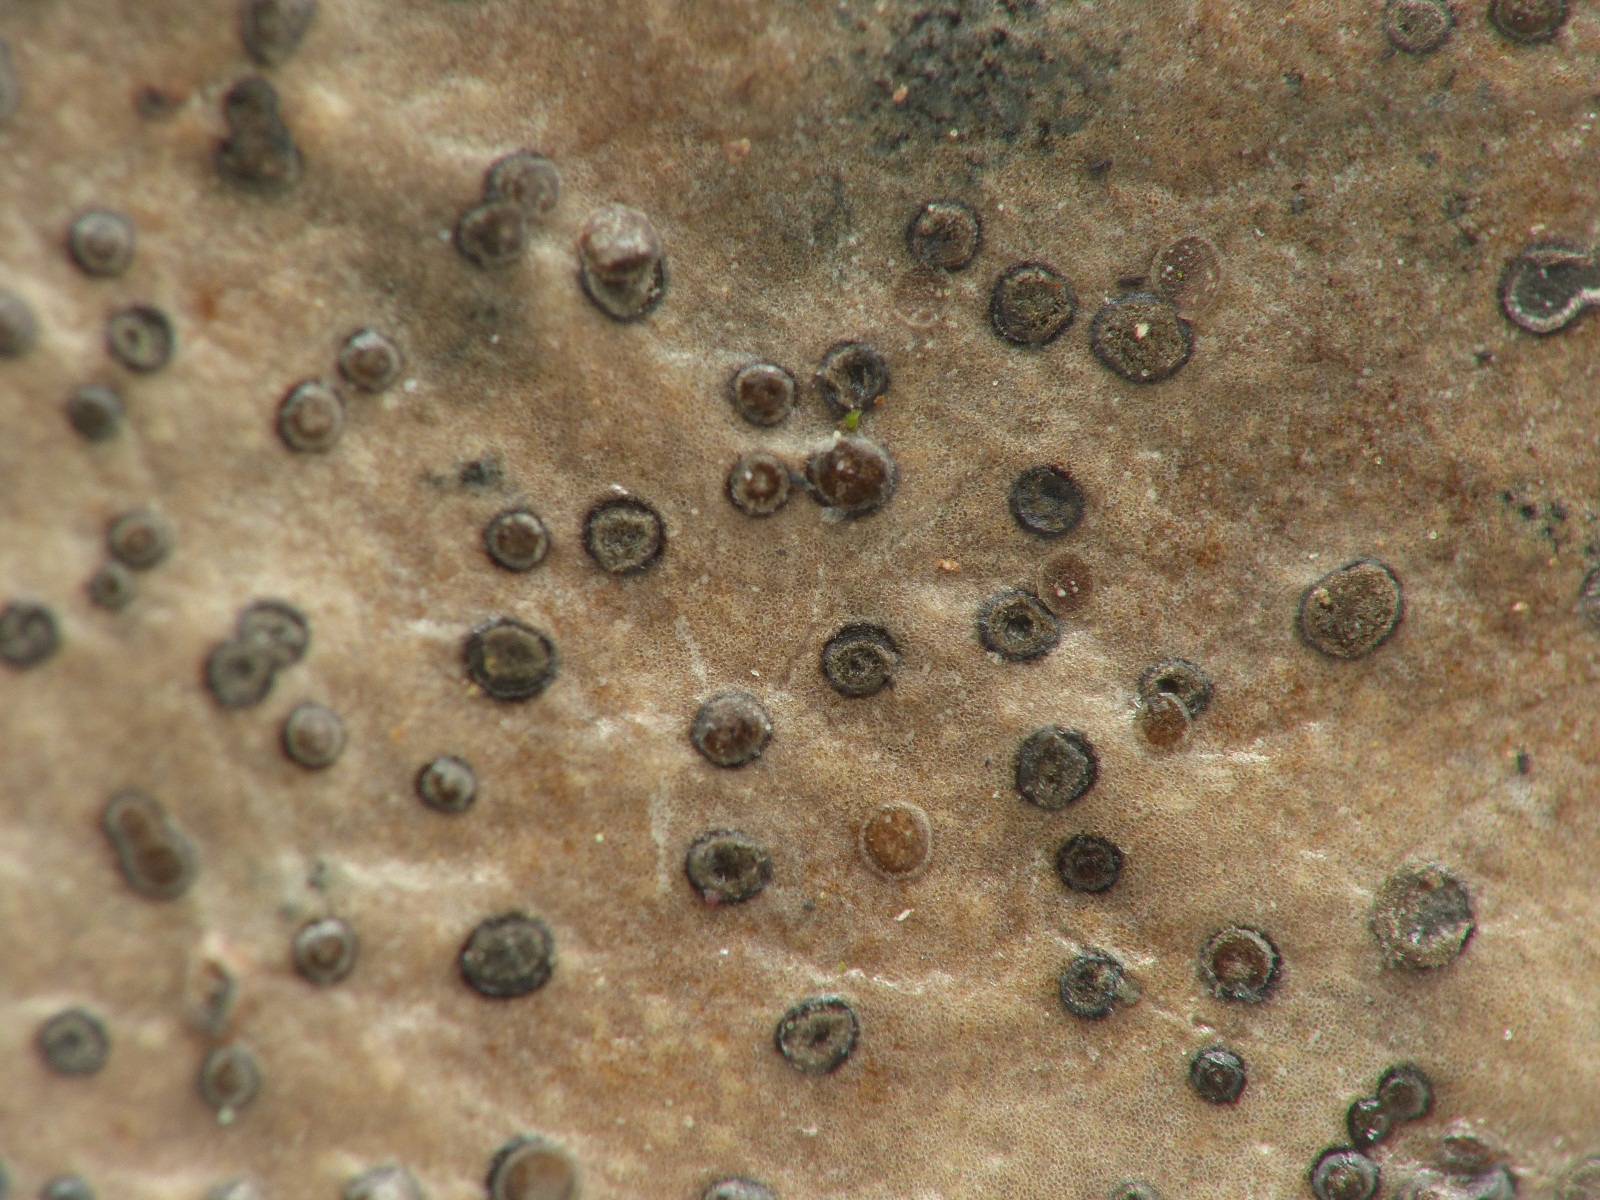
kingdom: Fungi
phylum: Ascomycota
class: Leotiomycetes
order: Helotiales
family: Cenangiaceae
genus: Trochila
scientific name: Trochila ilicina
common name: kristtorn-lågskive
